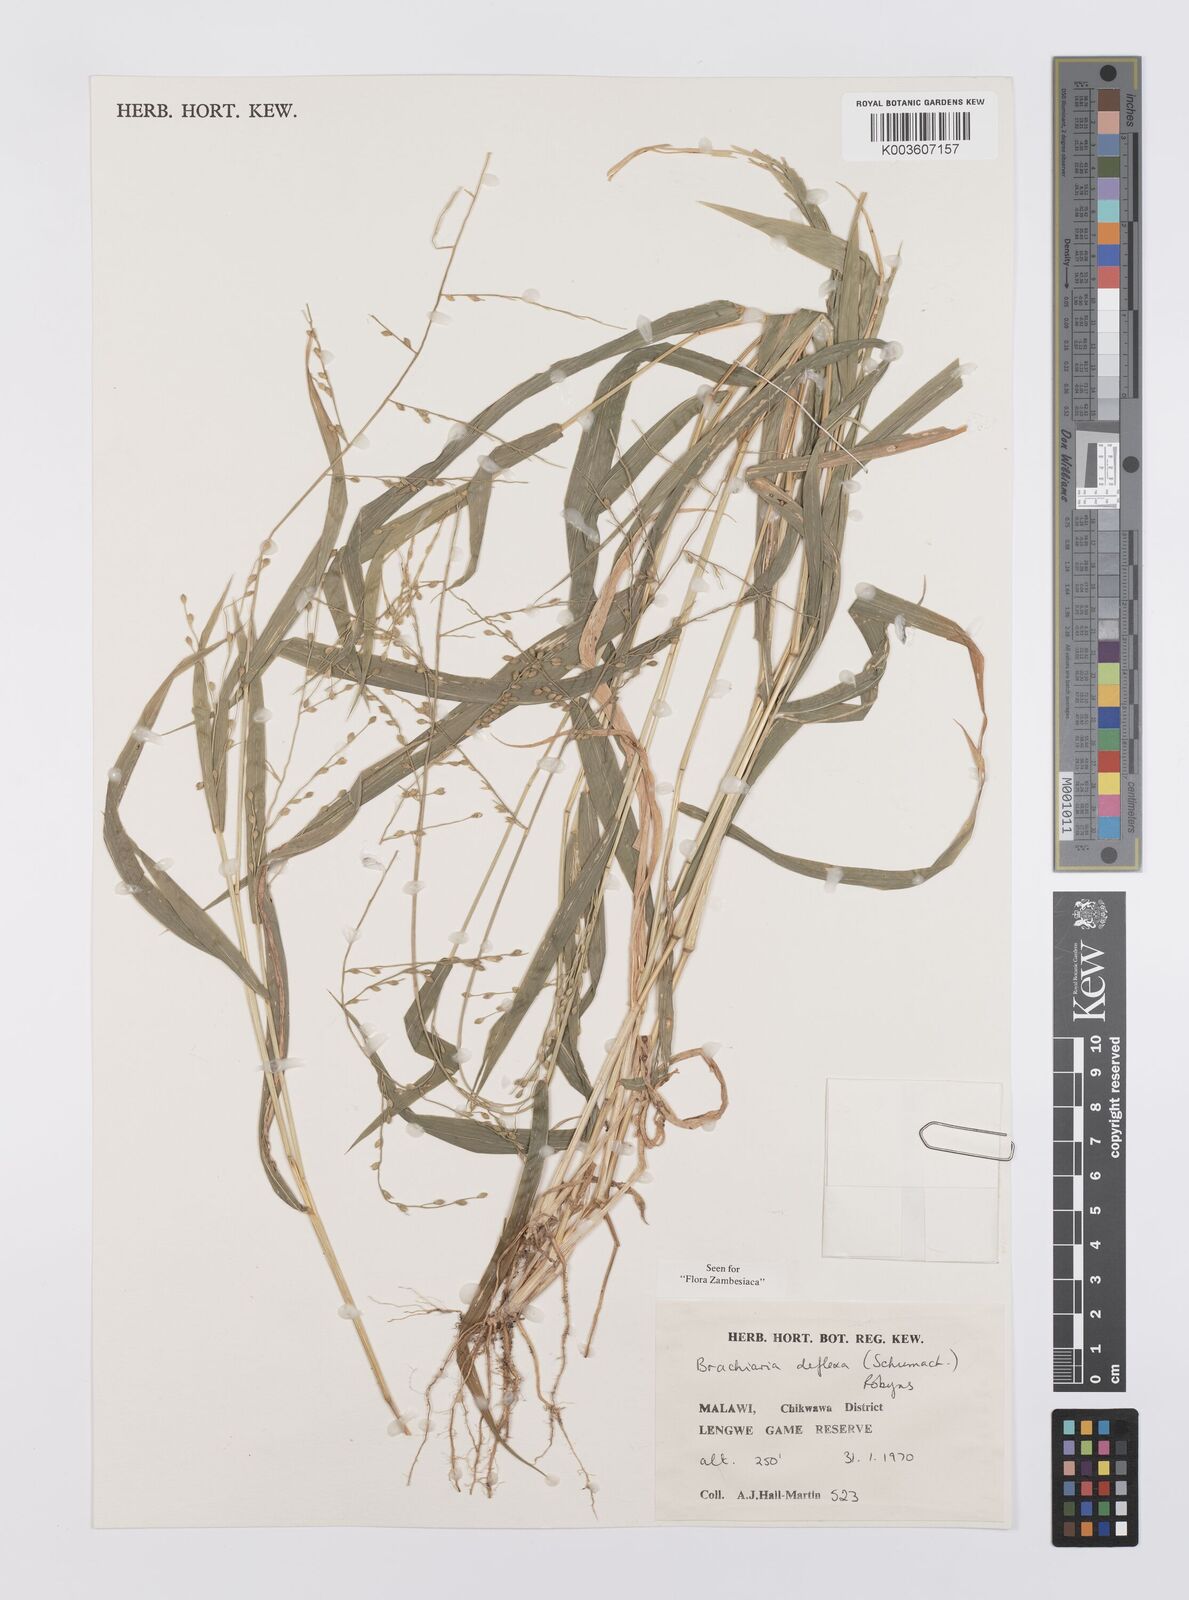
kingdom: Plantae
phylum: Tracheophyta
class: Liliopsida
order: Poales
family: Poaceae
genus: Urochloa
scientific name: Urochloa deflexa
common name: Guinea millet
